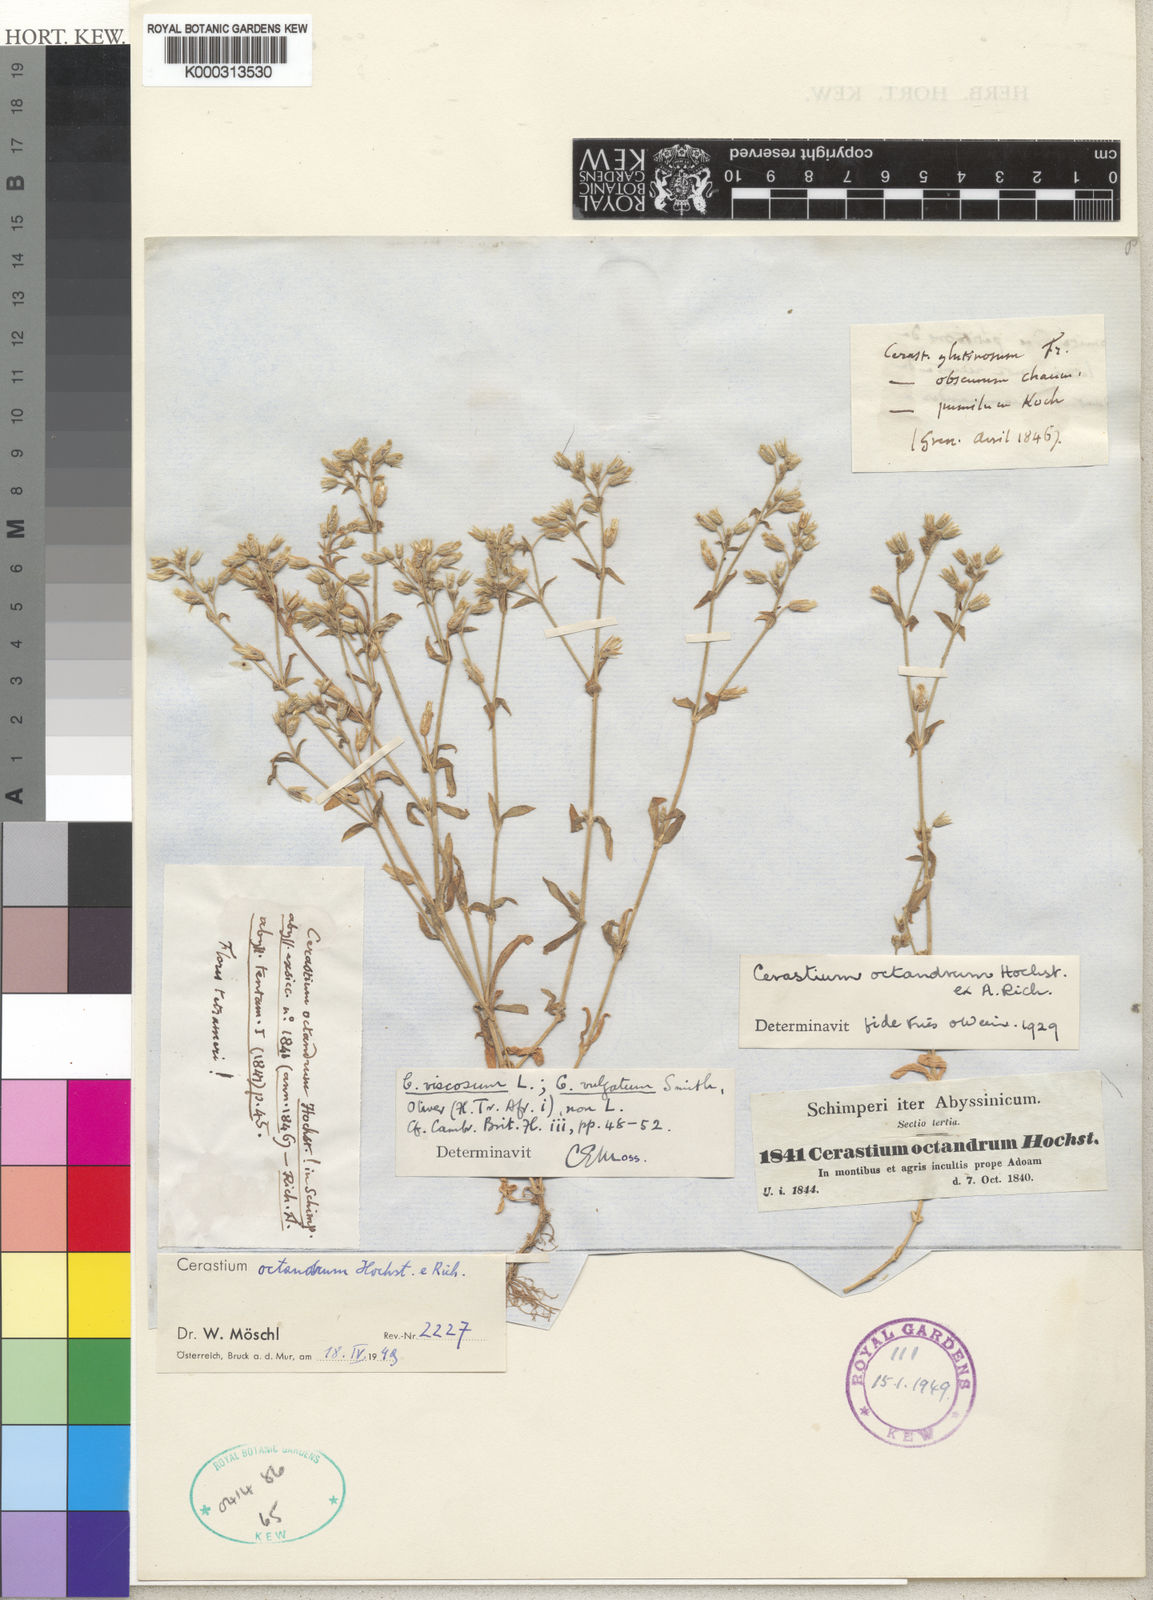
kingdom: Plantae
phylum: Tracheophyta
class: Magnoliopsida
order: Caryophyllales
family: Caryophyllaceae
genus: Cerastium
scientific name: Cerastium octandrum
